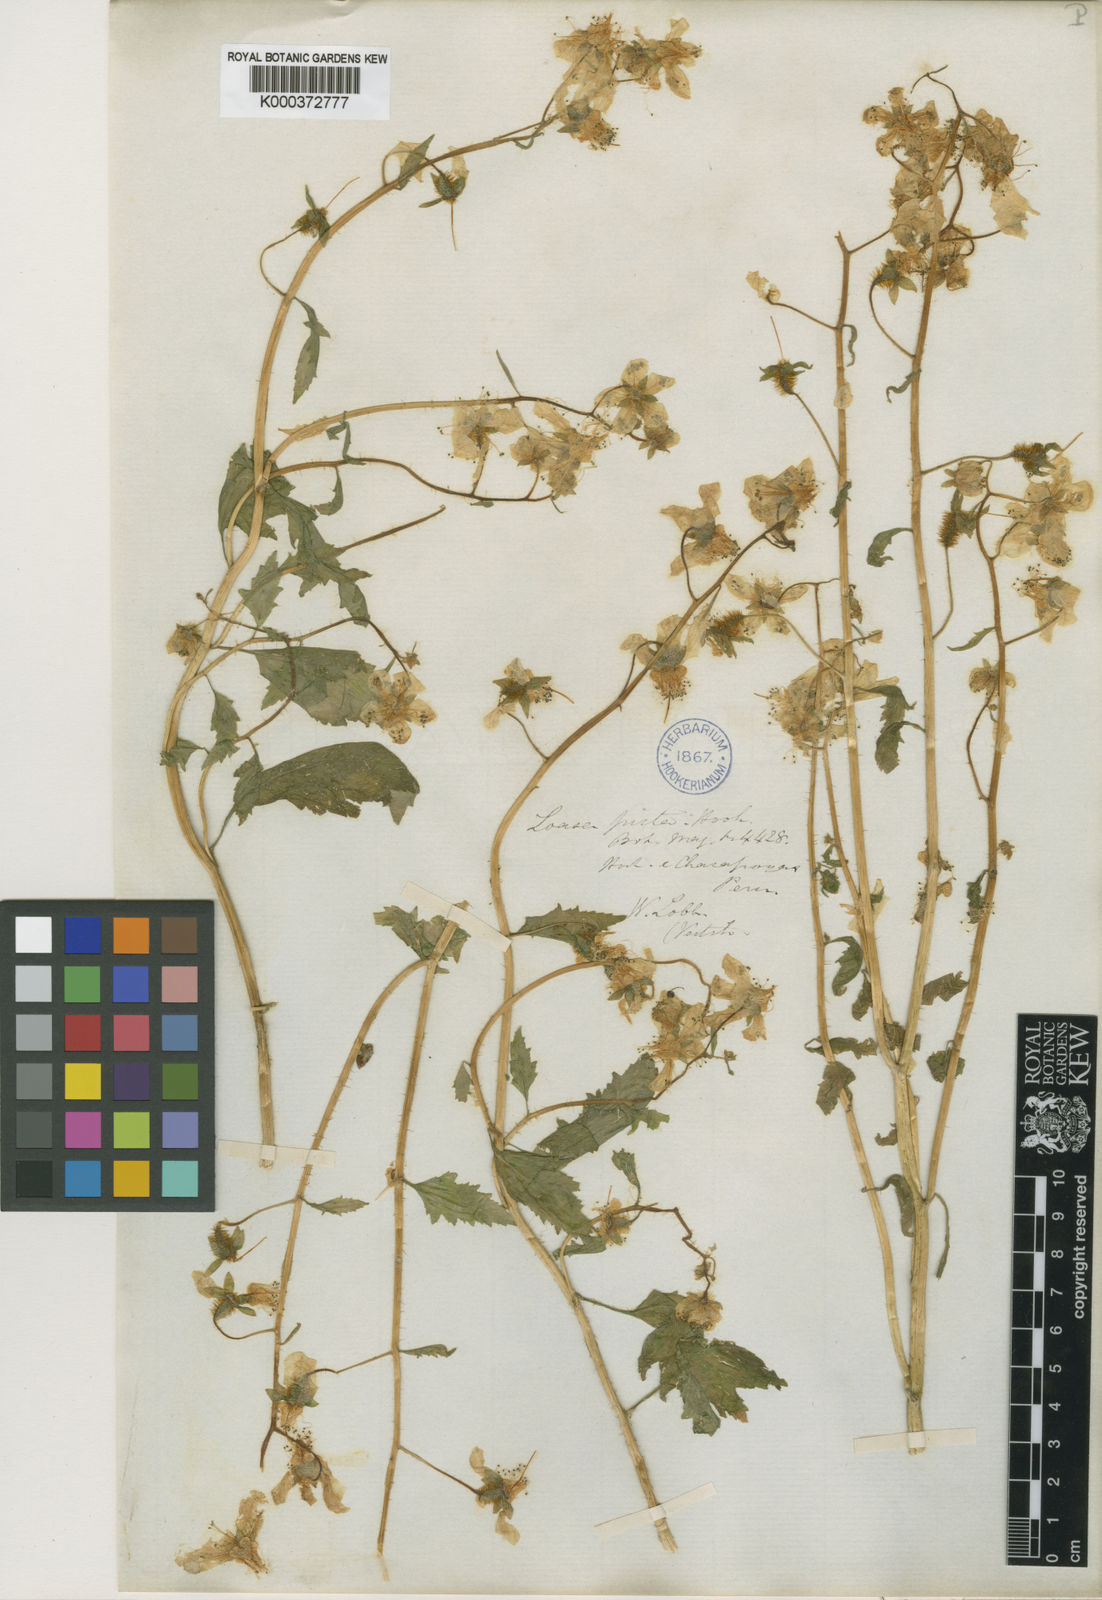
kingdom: Plantae
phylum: Tracheophyta
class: Magnoliopsida
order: Cornales
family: Loasaceae
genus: Nasa
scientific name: Nasa picta
